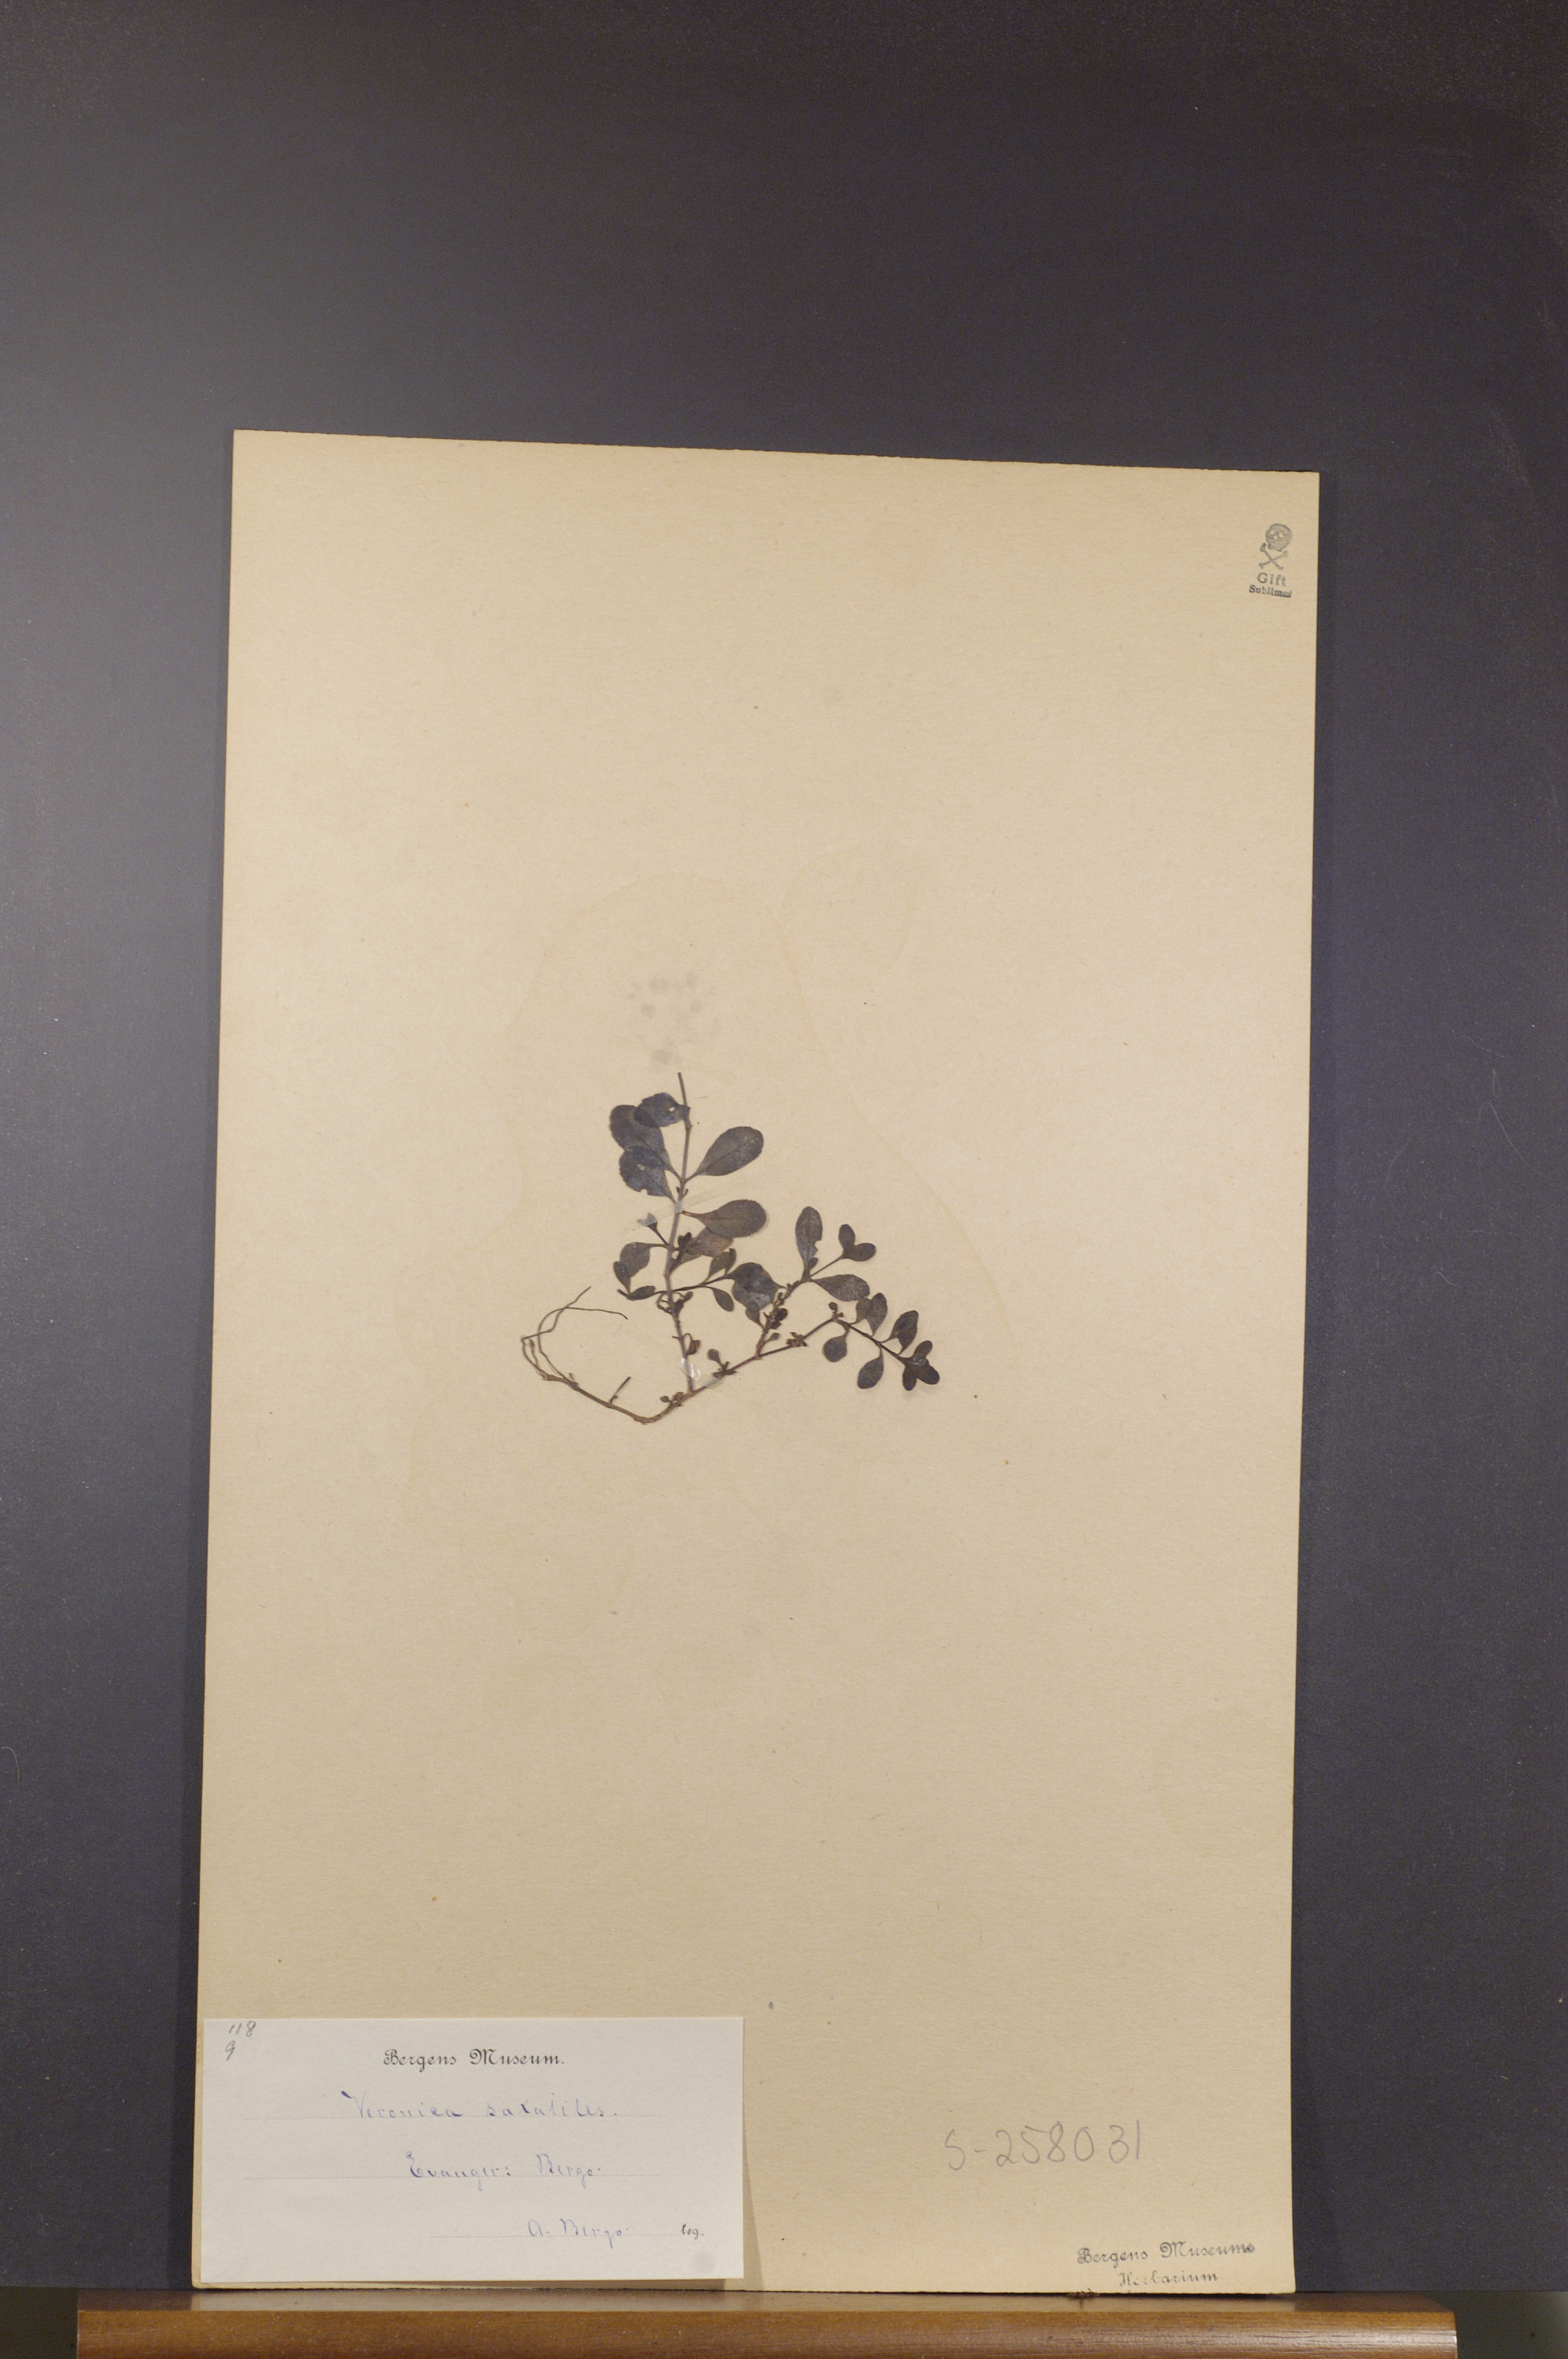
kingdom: Plantae
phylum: Tracheophyta
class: Magnoliopsida
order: Lamiales
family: Plantaginaceae
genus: Veronica
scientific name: Veronica fruticans
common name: Rock speedwell
